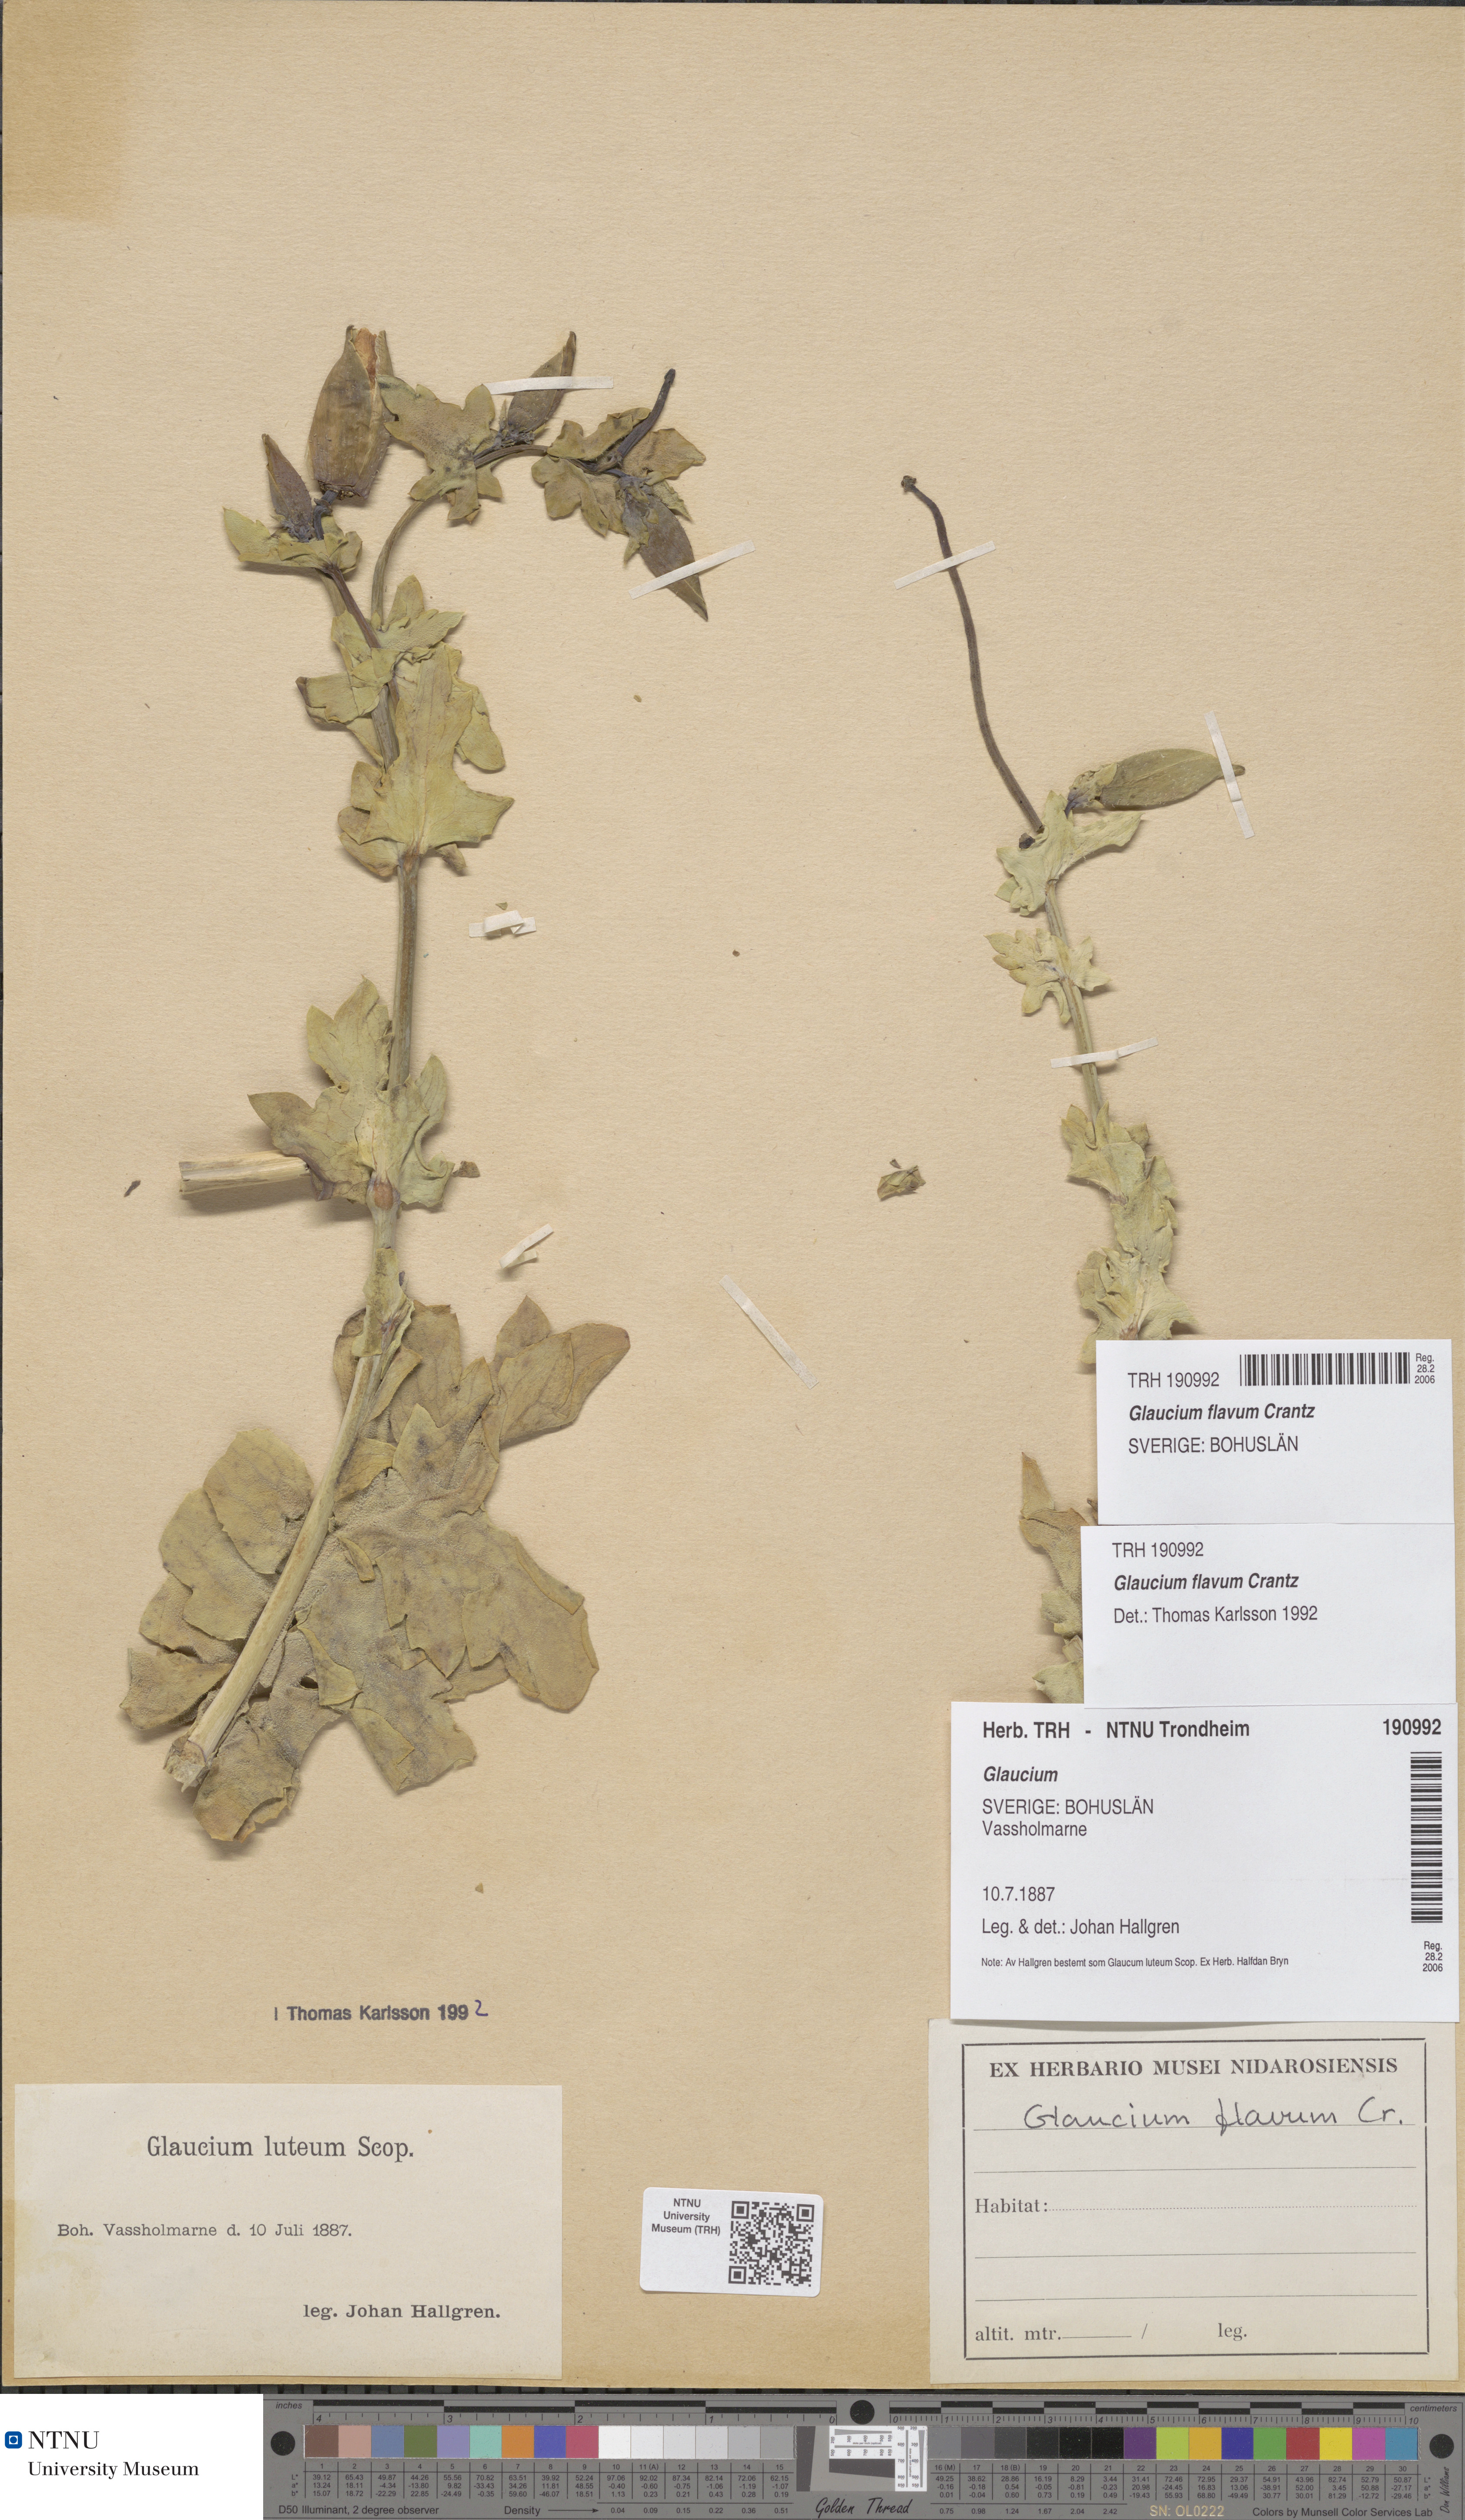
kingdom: Plantae
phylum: Tracheophyta
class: Magnoliopsida
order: Ranunculales
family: Papaveraceae
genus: Glaucium
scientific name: Glaucium flavum
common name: Yellow horned-poppy
